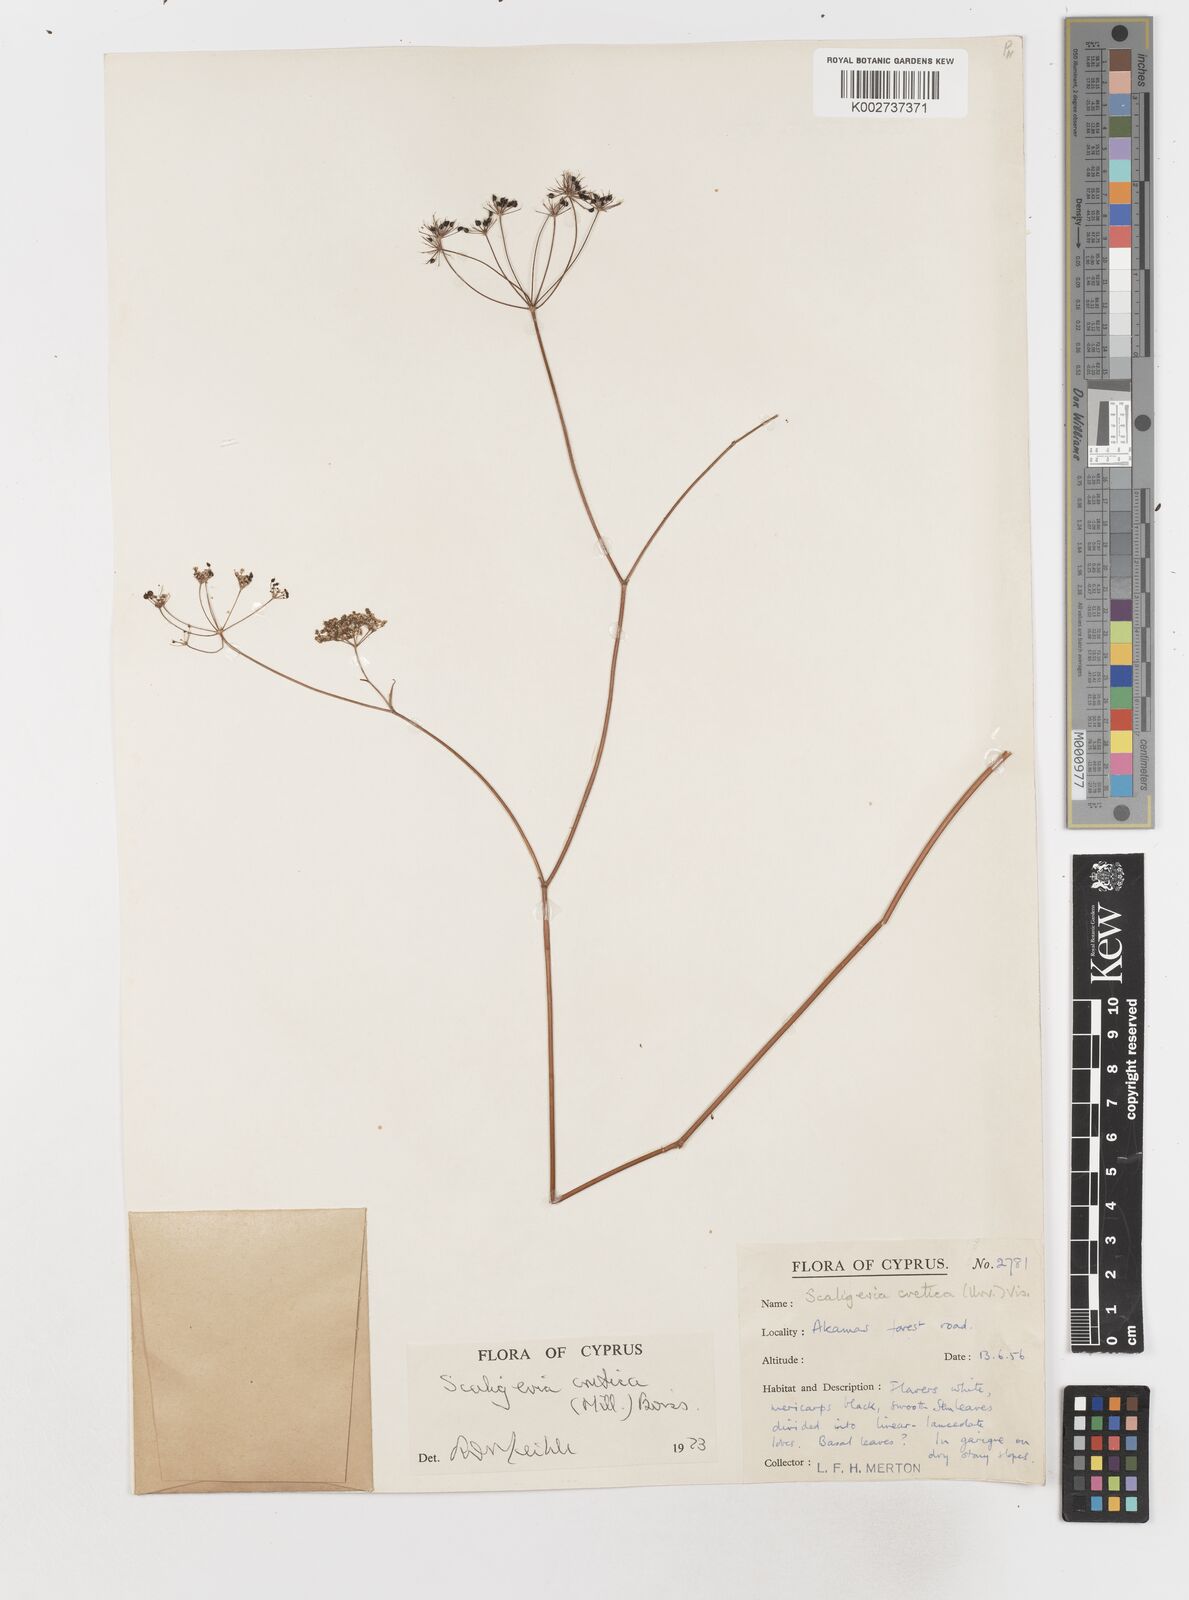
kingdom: Plantae
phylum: Tracheophyta
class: Magnoliopsida
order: Apiales
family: Apiaceae
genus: Scaligeria
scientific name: Scaligeria
